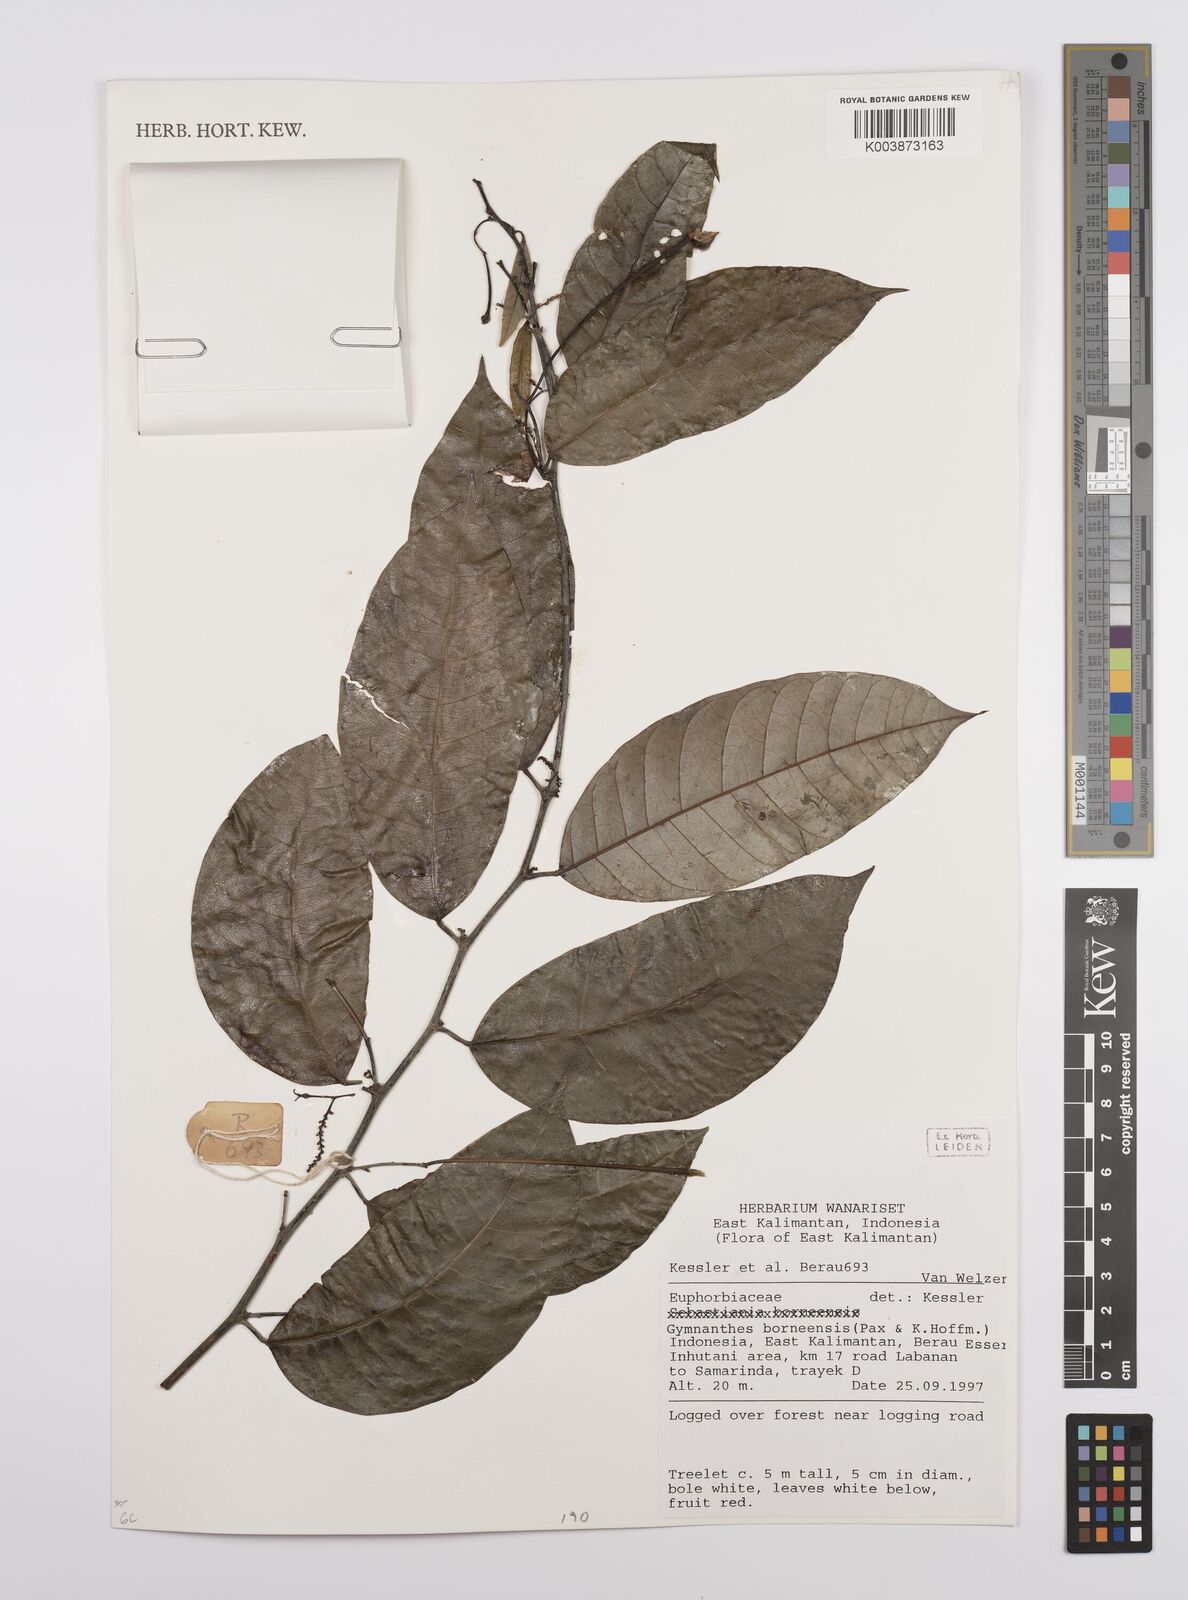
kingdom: Plantae
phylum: Tracheophyta
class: Magnoliopsida
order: Malpighiales
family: Euphorbiaceae
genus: Gymnanthes
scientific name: Gymnanthes borneensis
